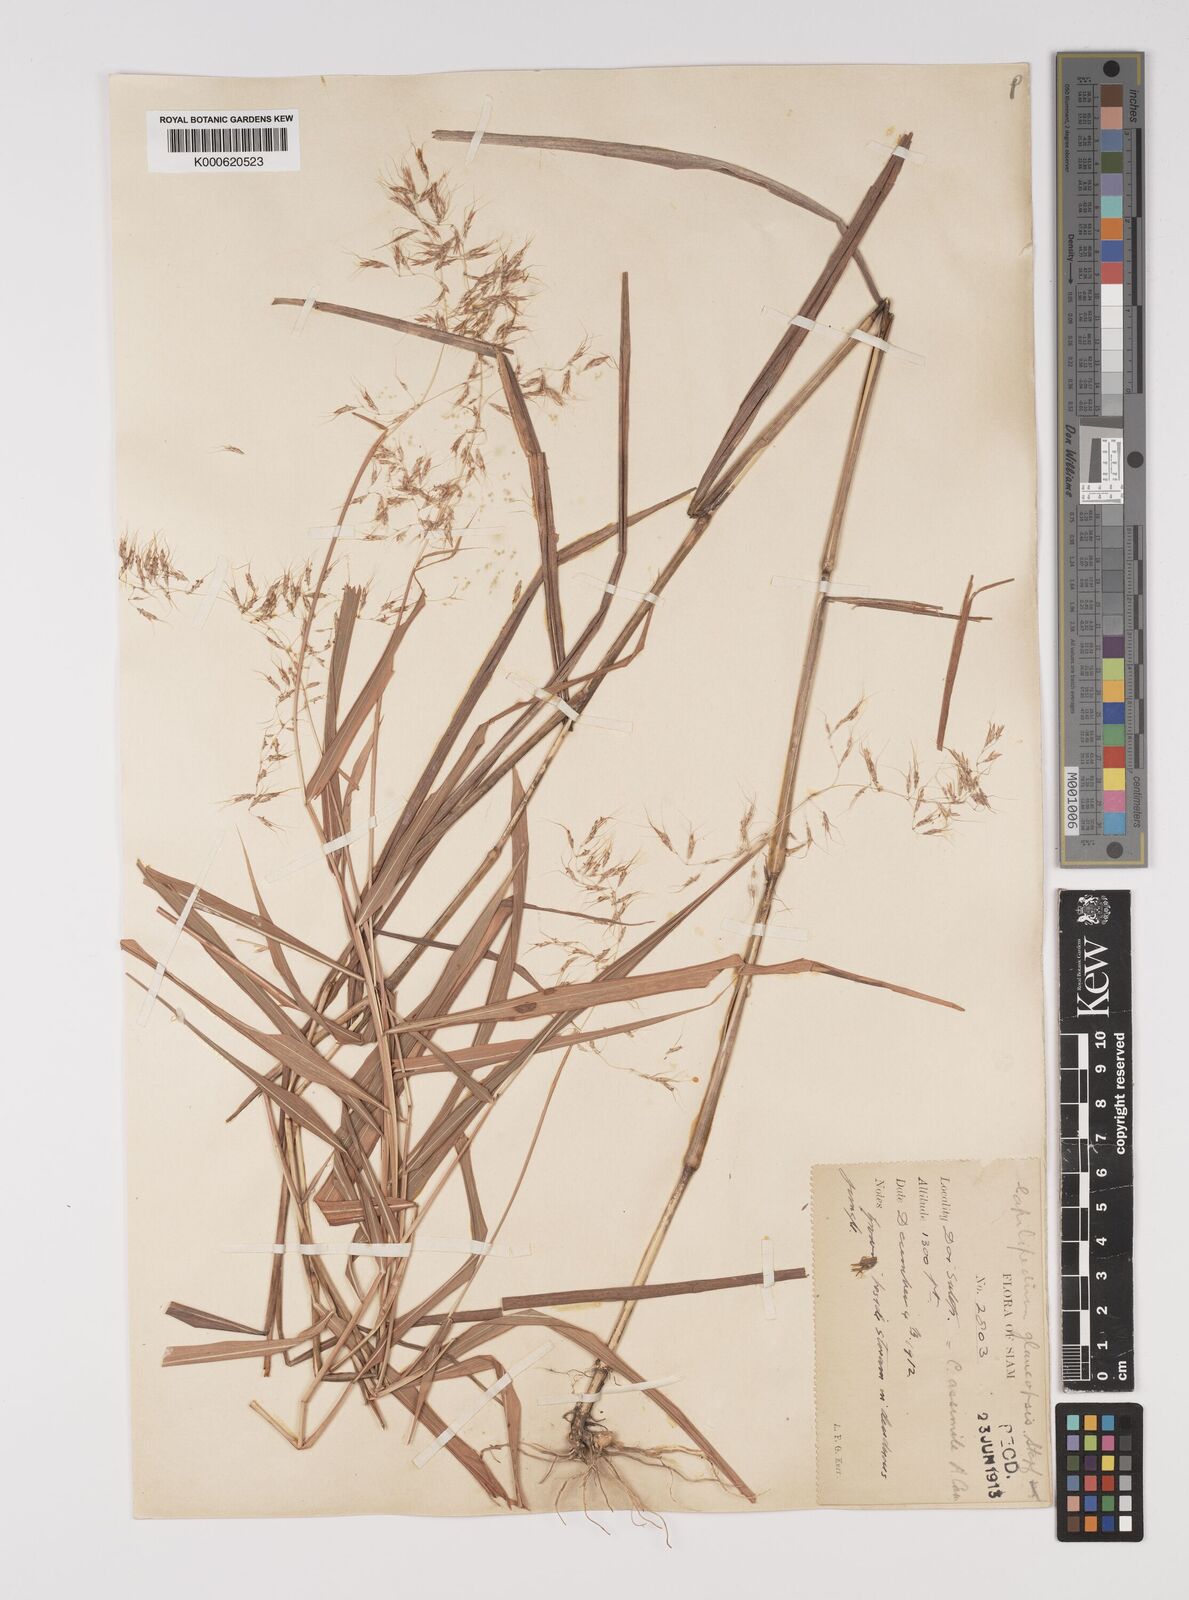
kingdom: Plantae
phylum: Tracheophyta
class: Liliopsida
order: Poales
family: Poaceae
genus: Capillipedium
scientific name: Capillipedium assimile
